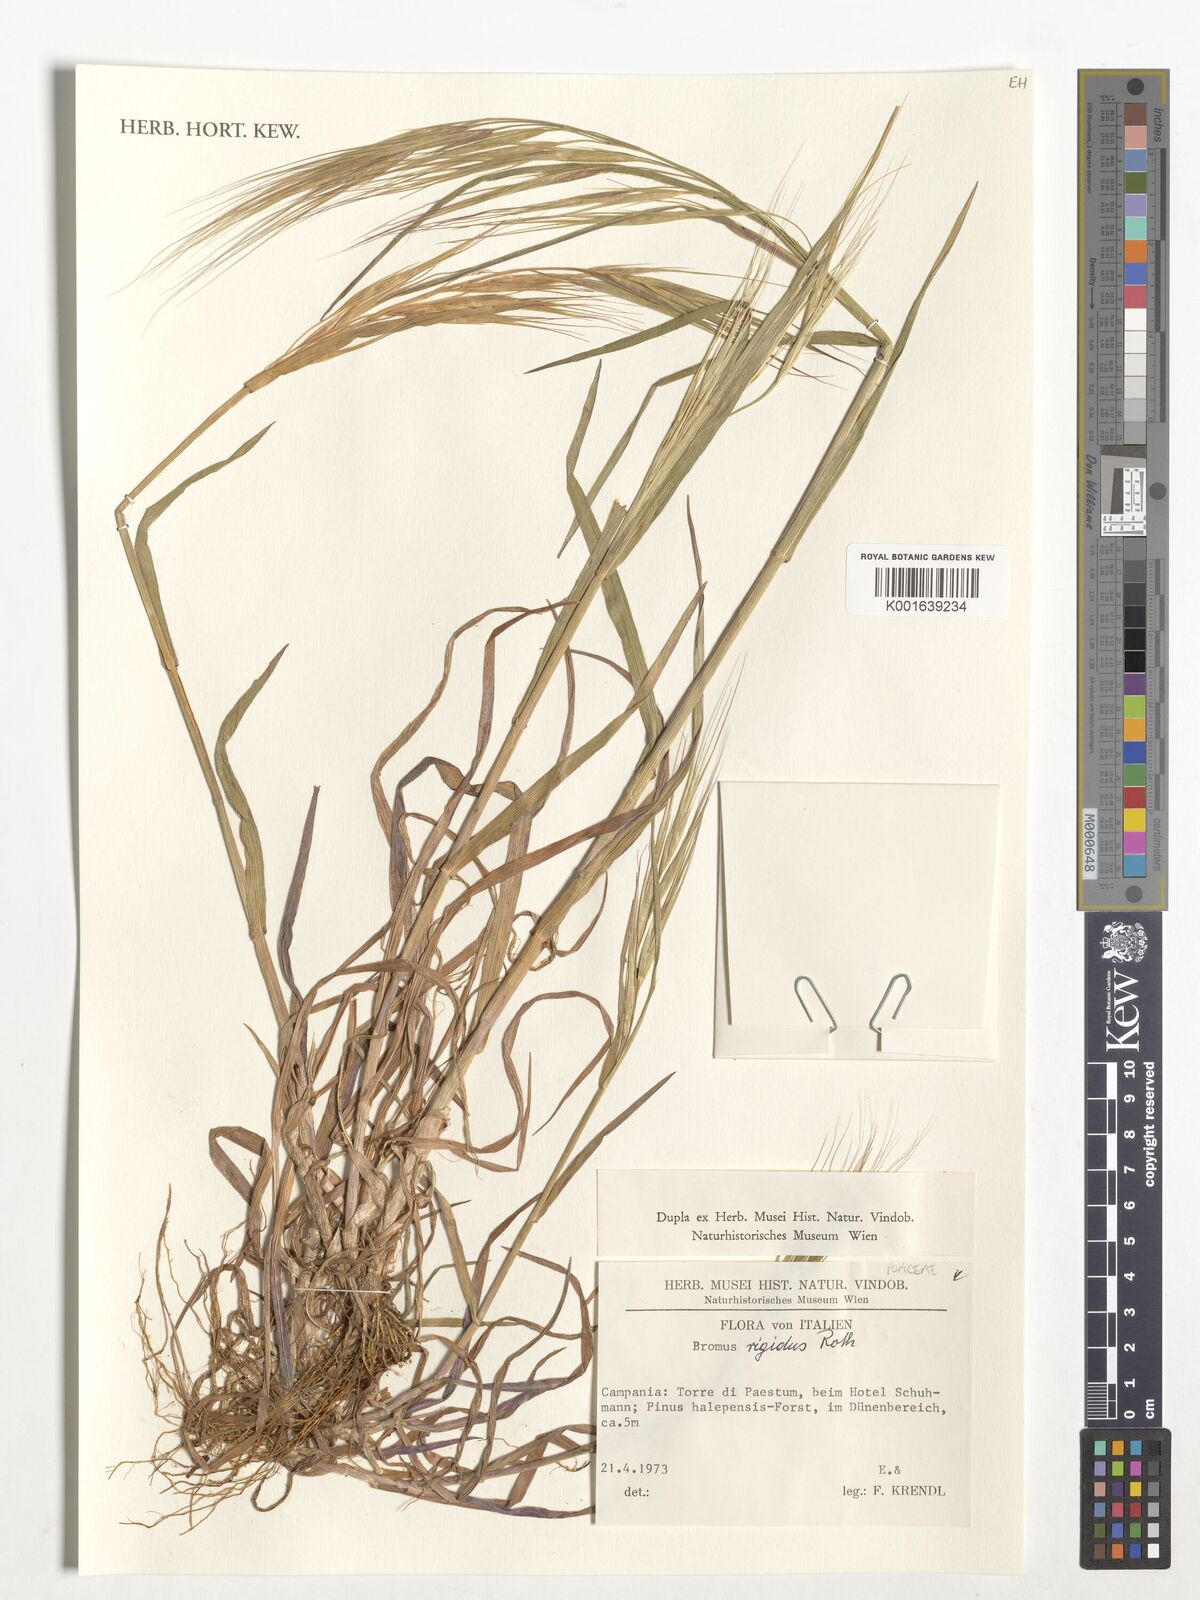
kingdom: Plantae
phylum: Tracheophyta
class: Liliopsida
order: Poales
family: Poaceae
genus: Bromus
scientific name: Bromus rigidus
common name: Ripgut brome
